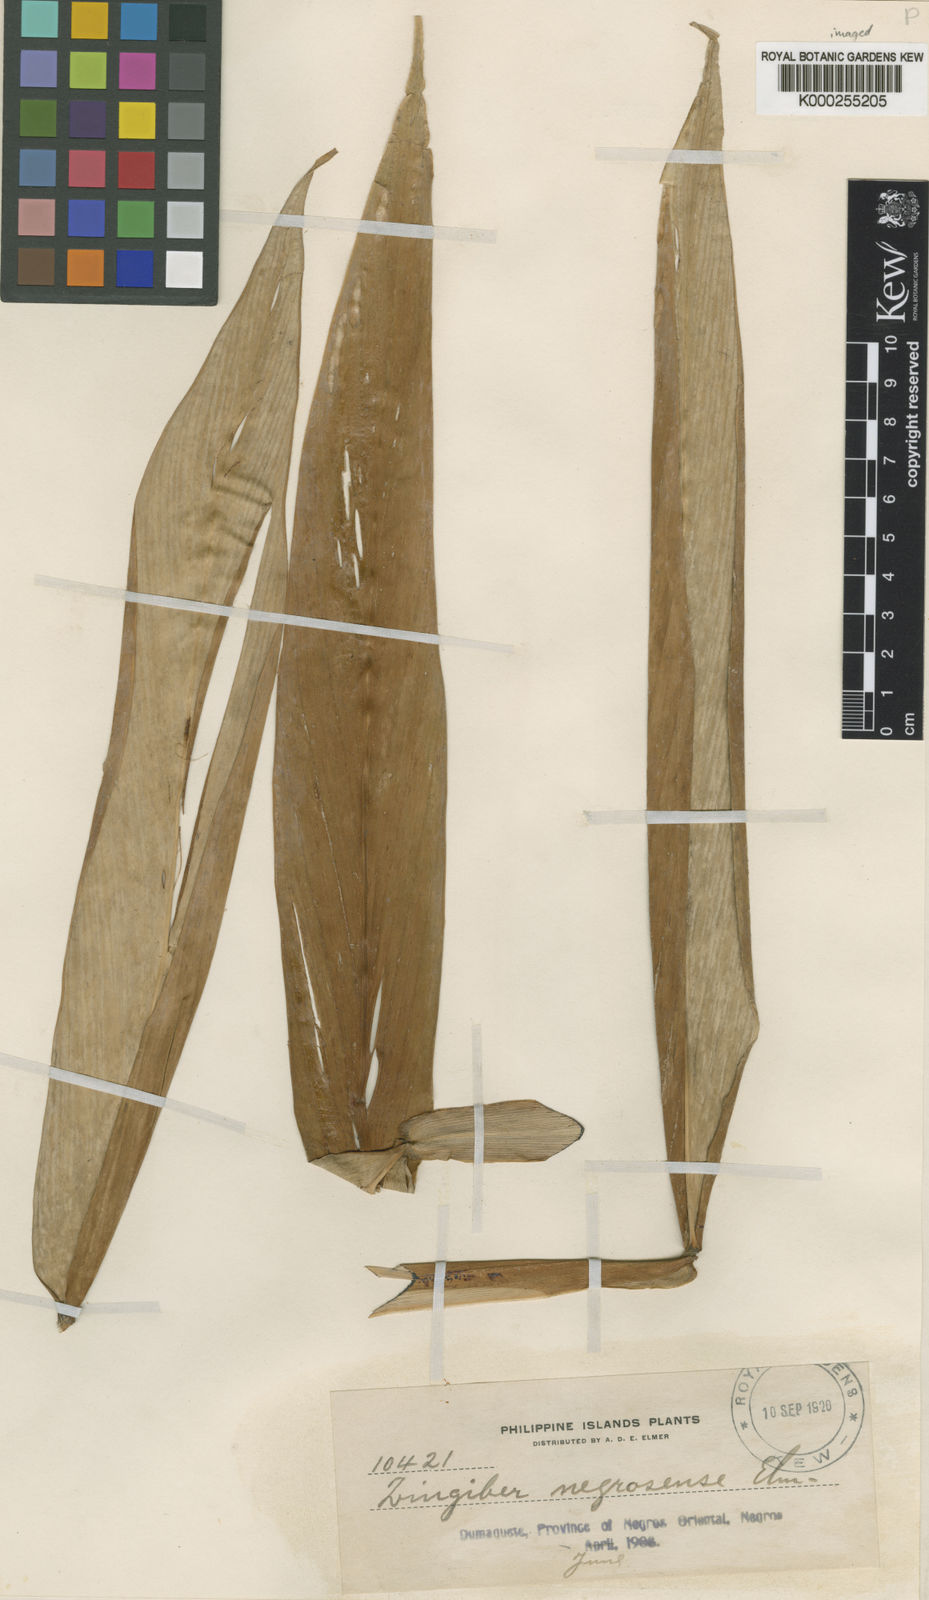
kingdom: Plantae
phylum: Tracheophyta
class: Liliopsida
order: Zingiberales
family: Zingiberaceae
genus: Zingiber
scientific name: Zingiber negrosense
